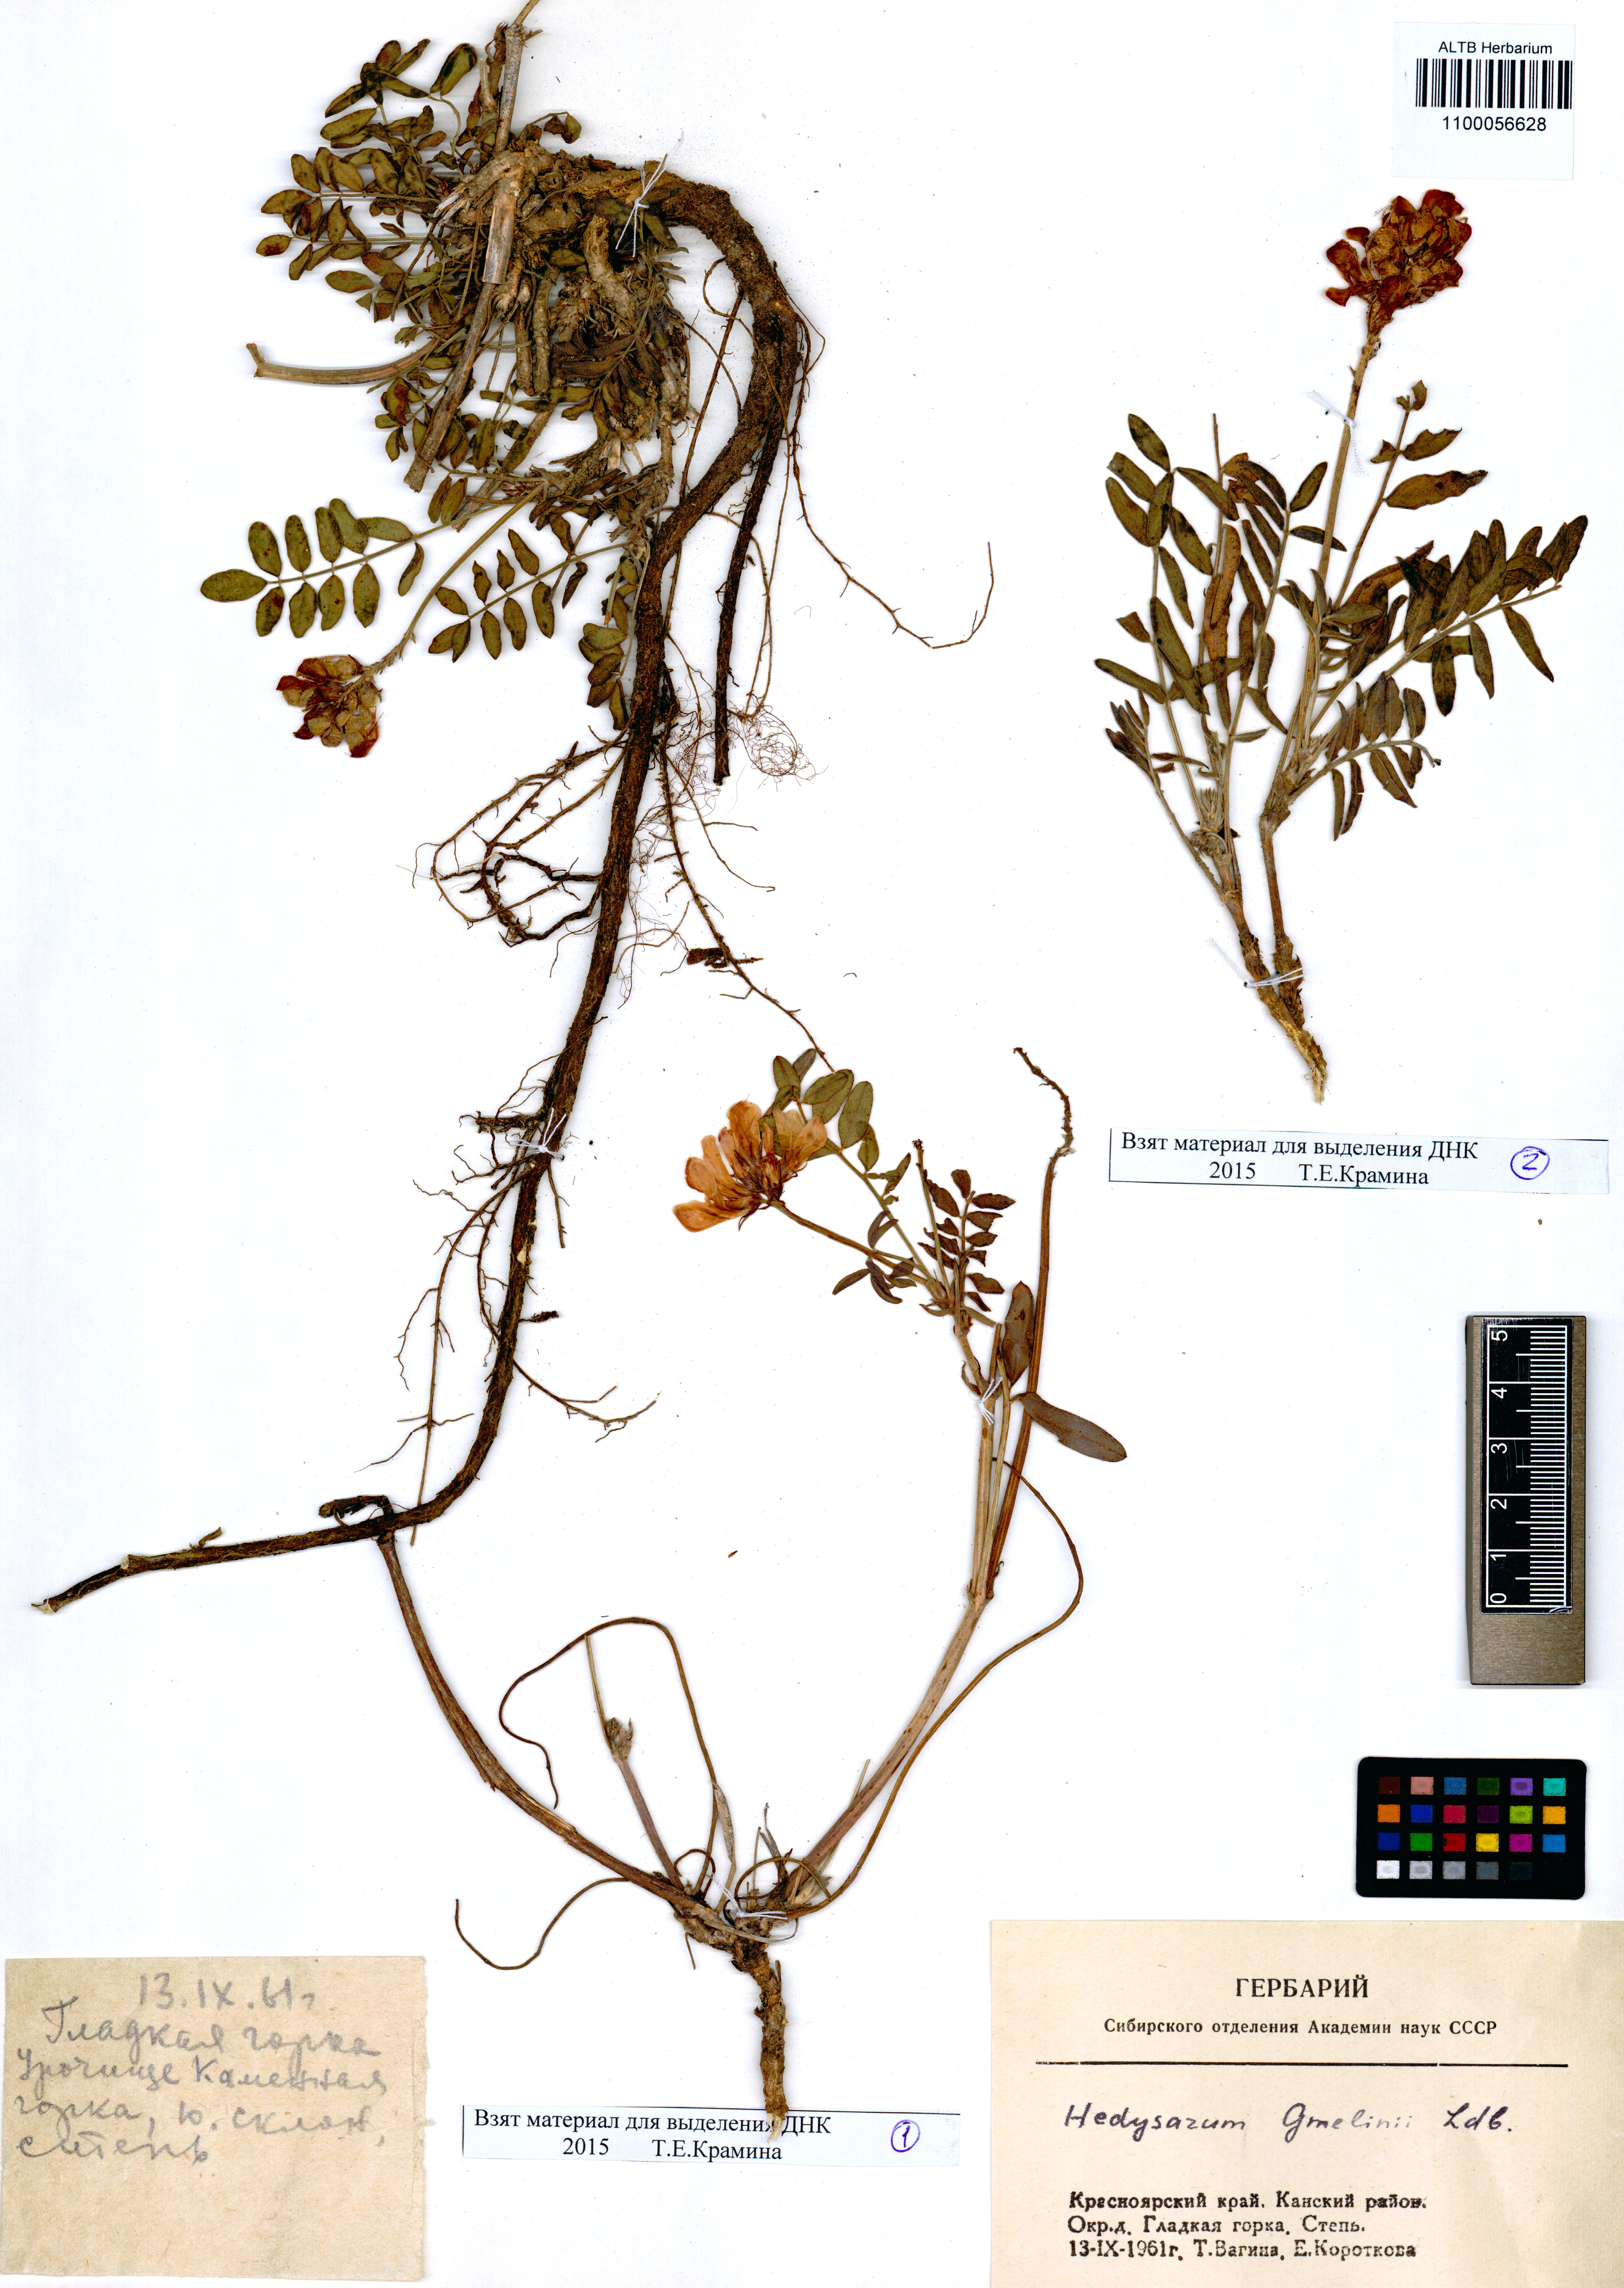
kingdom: Plantae
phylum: Tracheophyta
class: Magnoliopsida
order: Fabales
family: Fabaceae
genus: Hedysarum
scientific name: Hedysarum gmelinii
